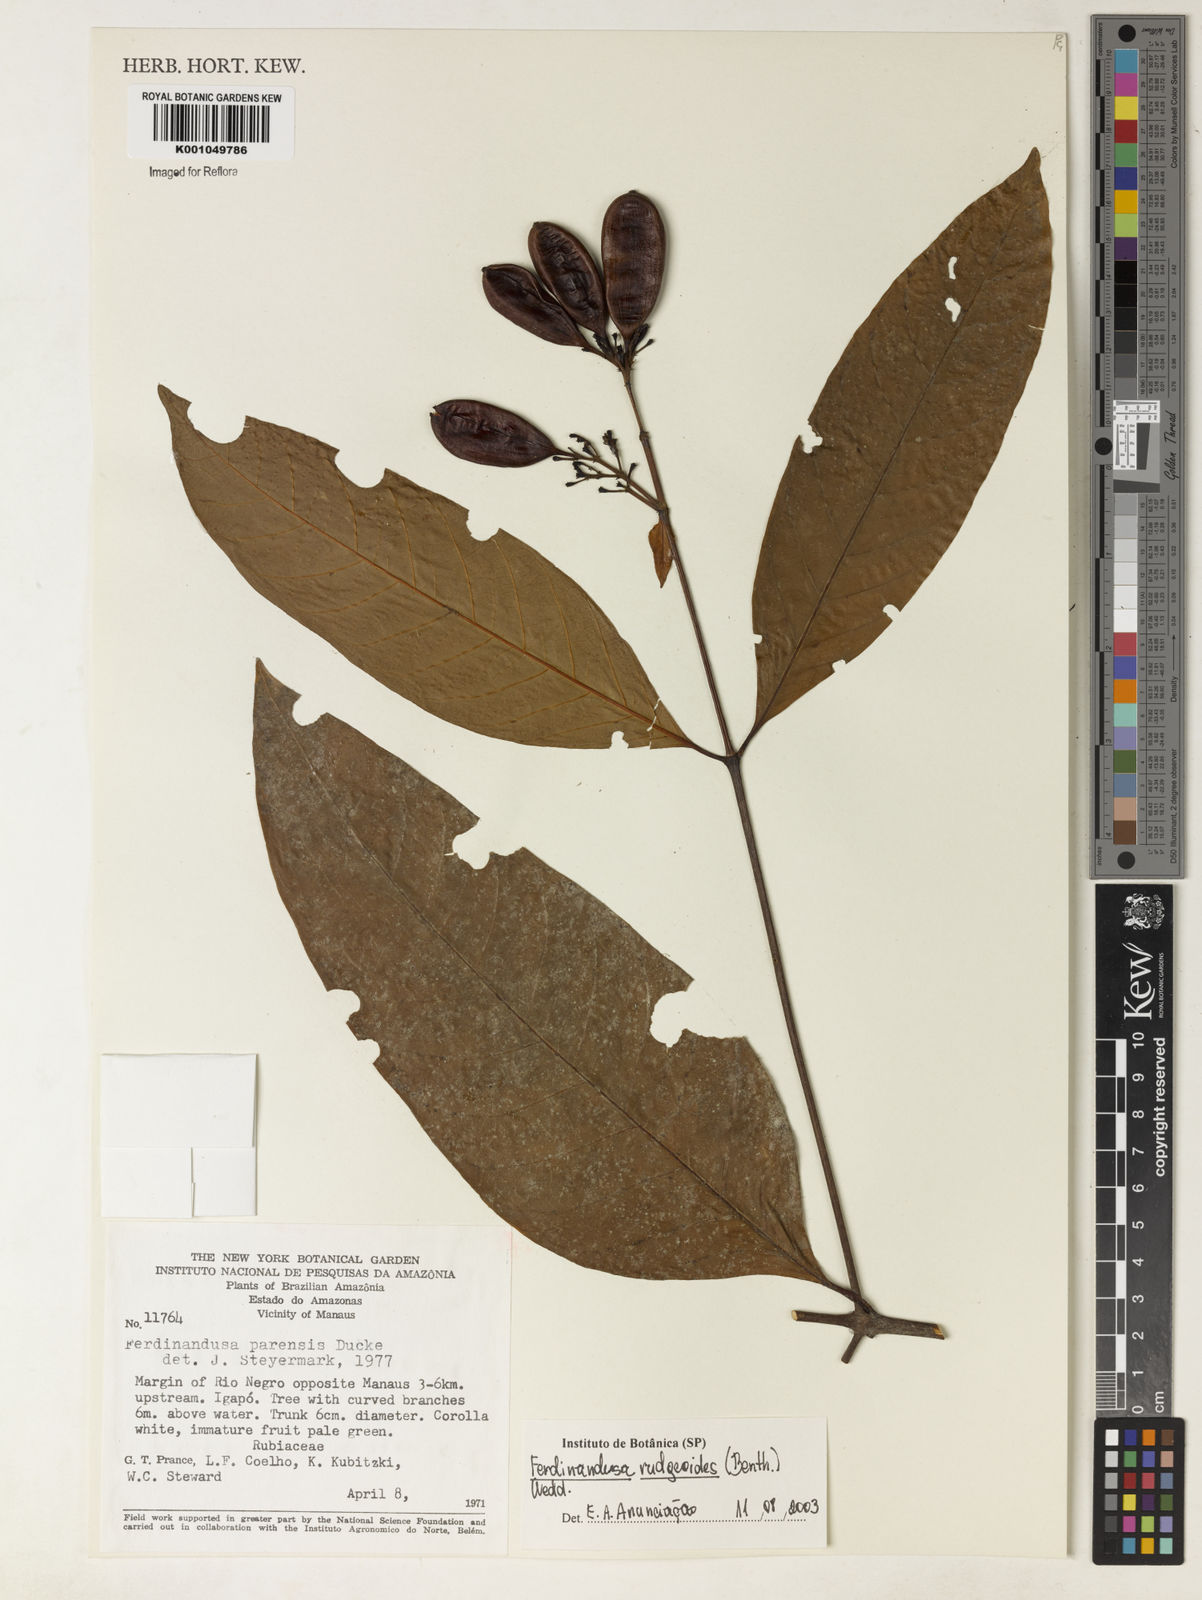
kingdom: Plantae
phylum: Tracheophyta
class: Magnoliopsida
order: Gentianales
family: Rubiaceae
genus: Ferdinandusa
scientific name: Ferdinandusa rudgeoides
